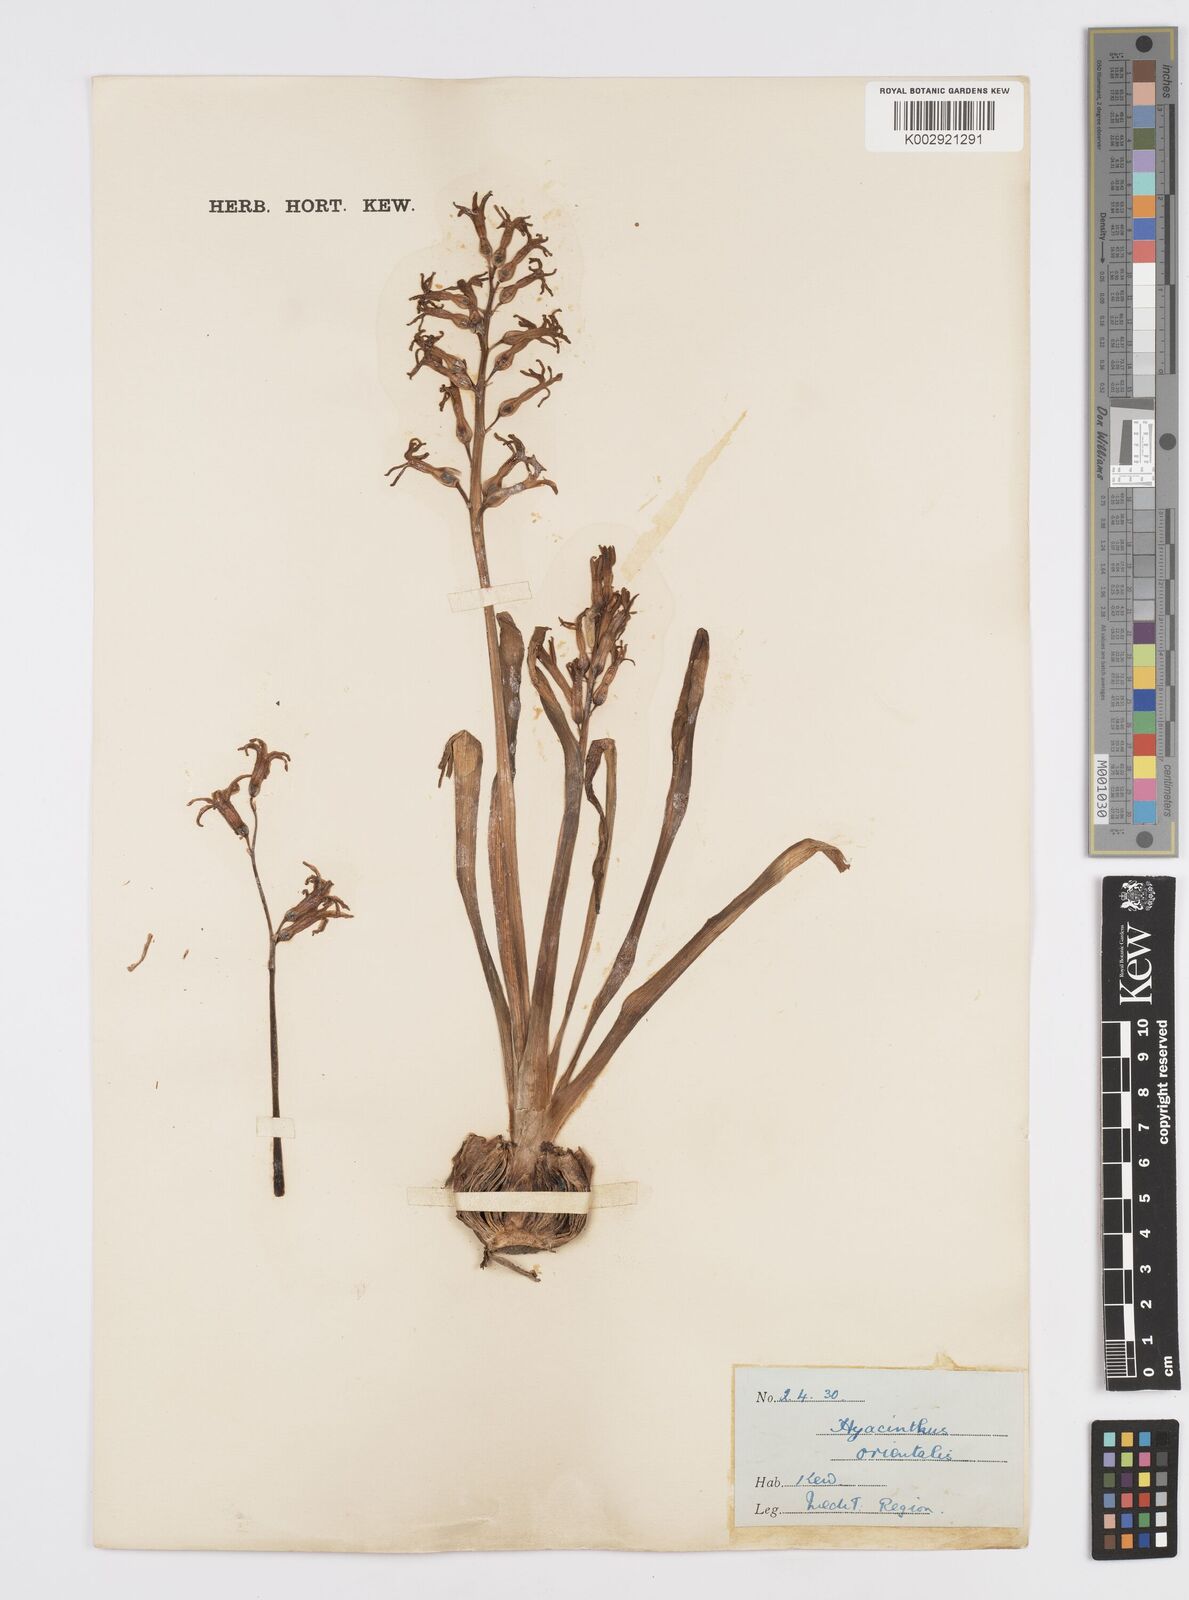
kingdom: Plantae
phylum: Tracheophyta
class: Liliopsida
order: Asparagales
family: Asparagaceae
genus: Hyacinthus
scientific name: Hyacinthus orientalis
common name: Hyacinth
